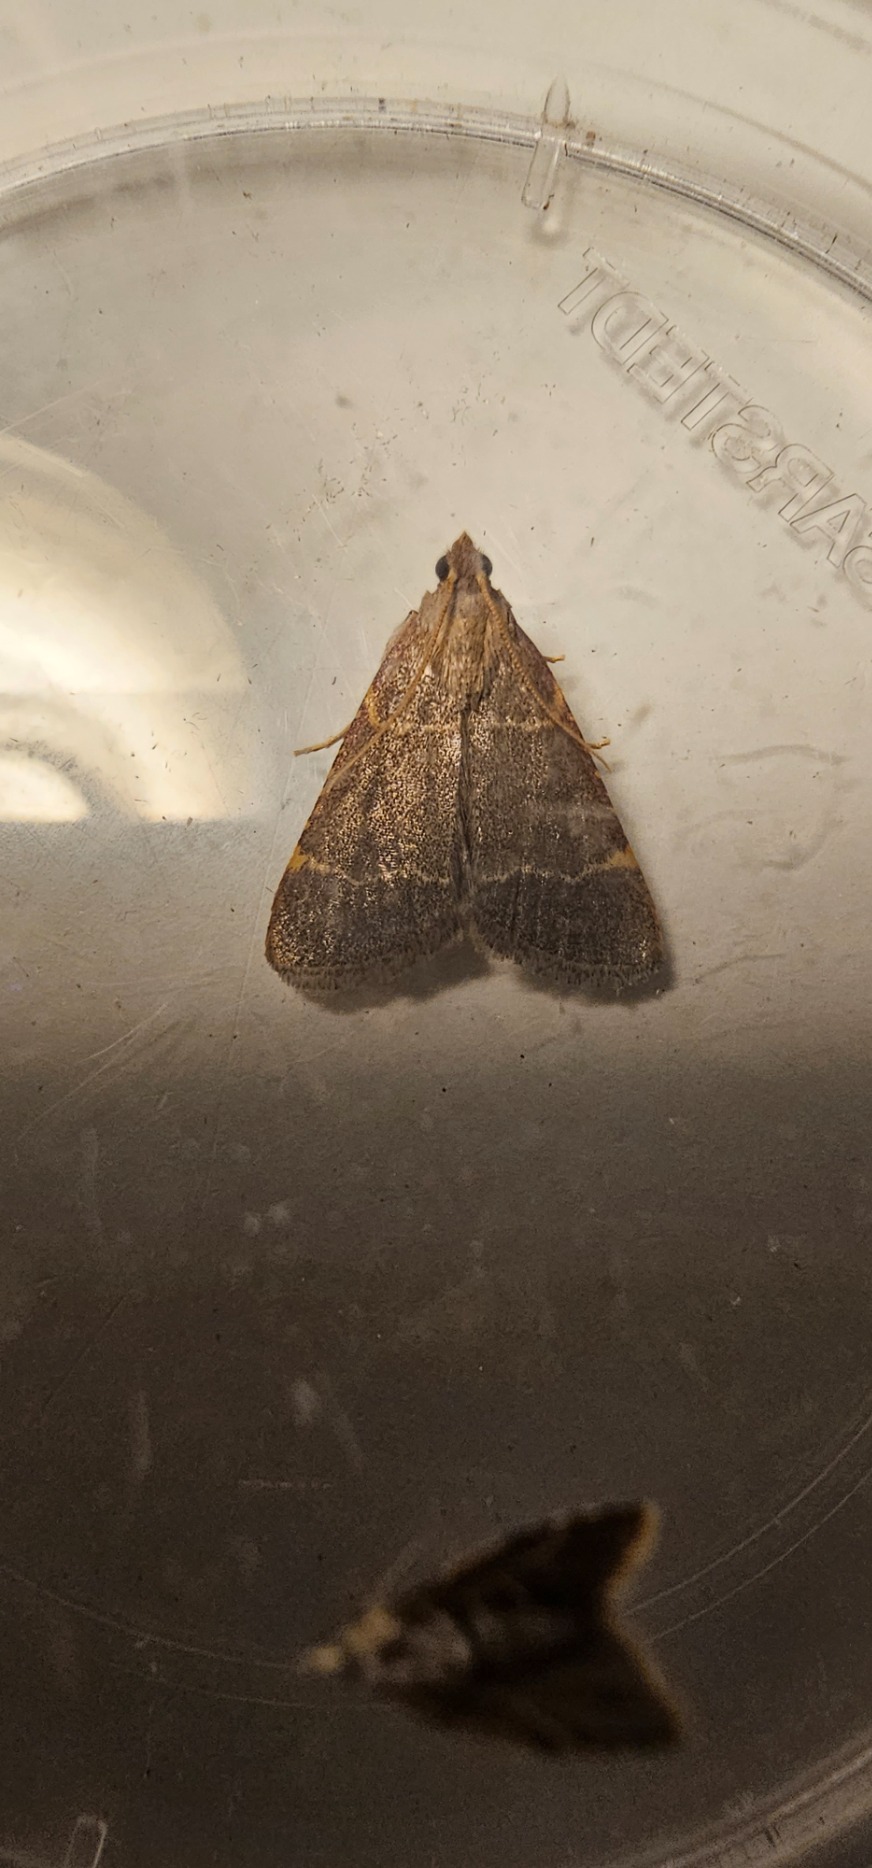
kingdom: Animalia
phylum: Arthropoda
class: Insecta
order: Lepidoptera
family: Pyralidae
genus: Hypsopygia
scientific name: Hypsopygia glaucinalis
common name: Blågråt herkuleshalvmøl
